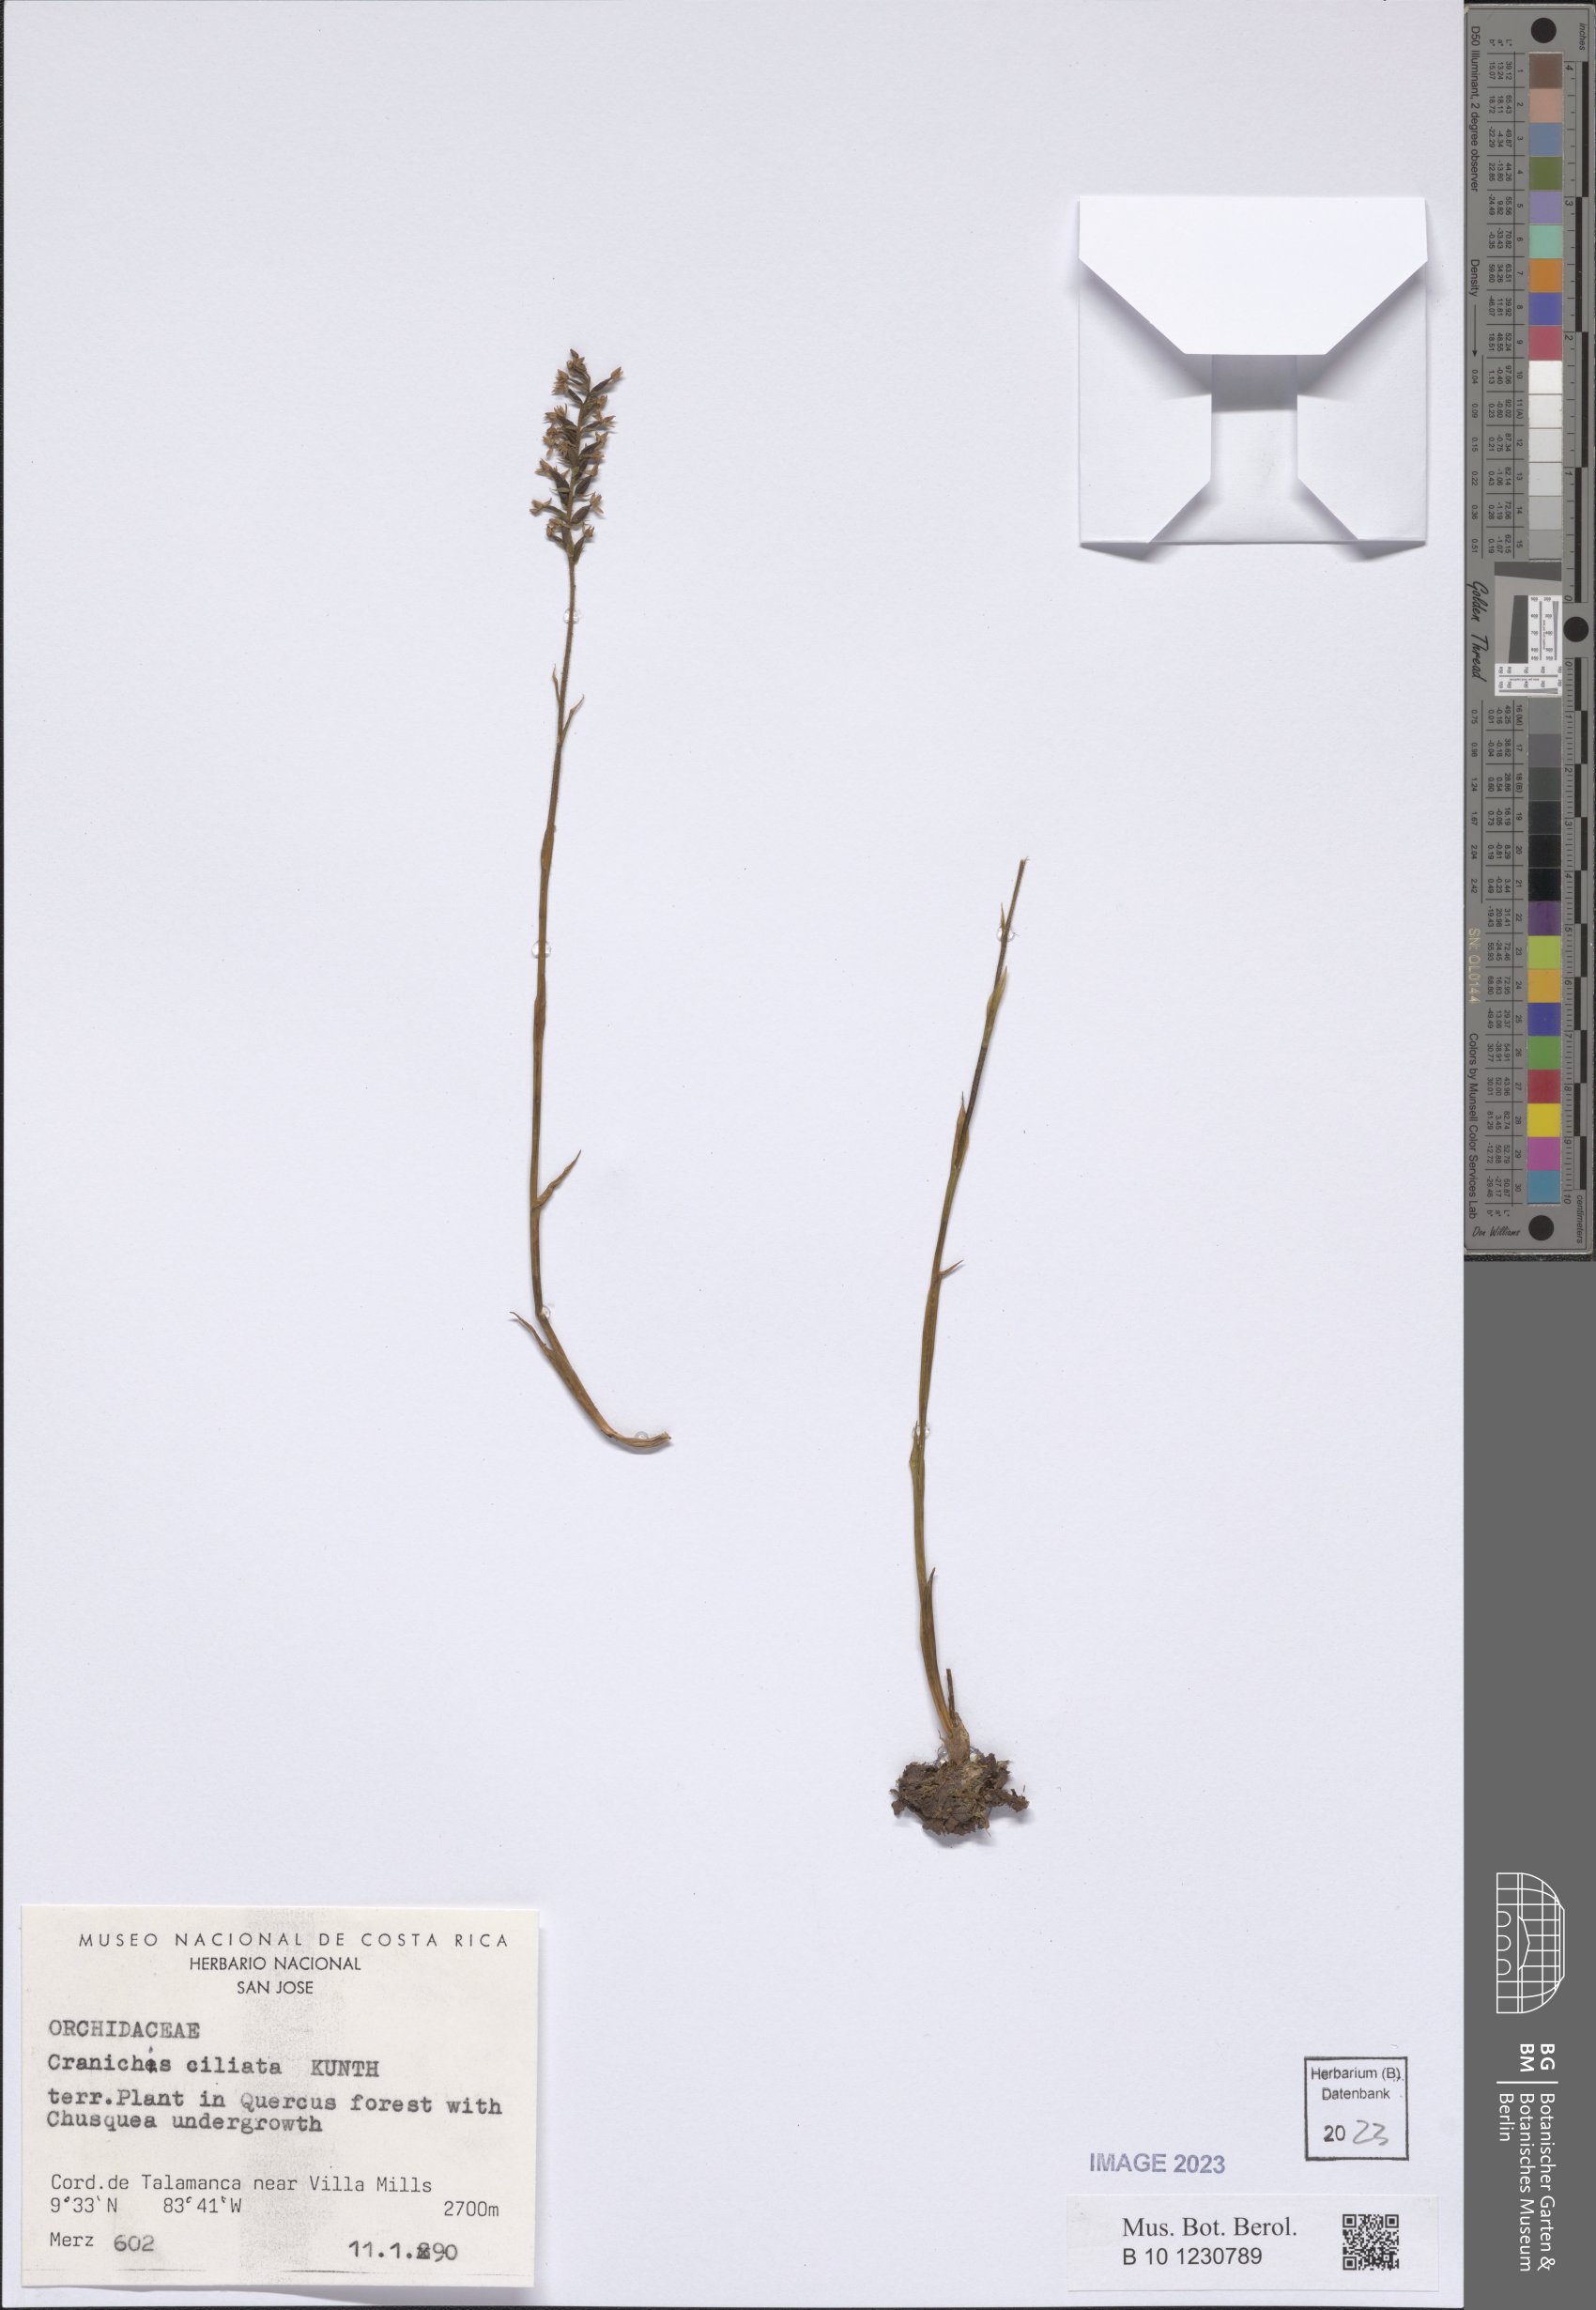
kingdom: Plantae
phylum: Tracheophyta
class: Liliopsida
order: Asparagales
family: Orchidaceae
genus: Cranichis
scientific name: Cranichis ciliata
